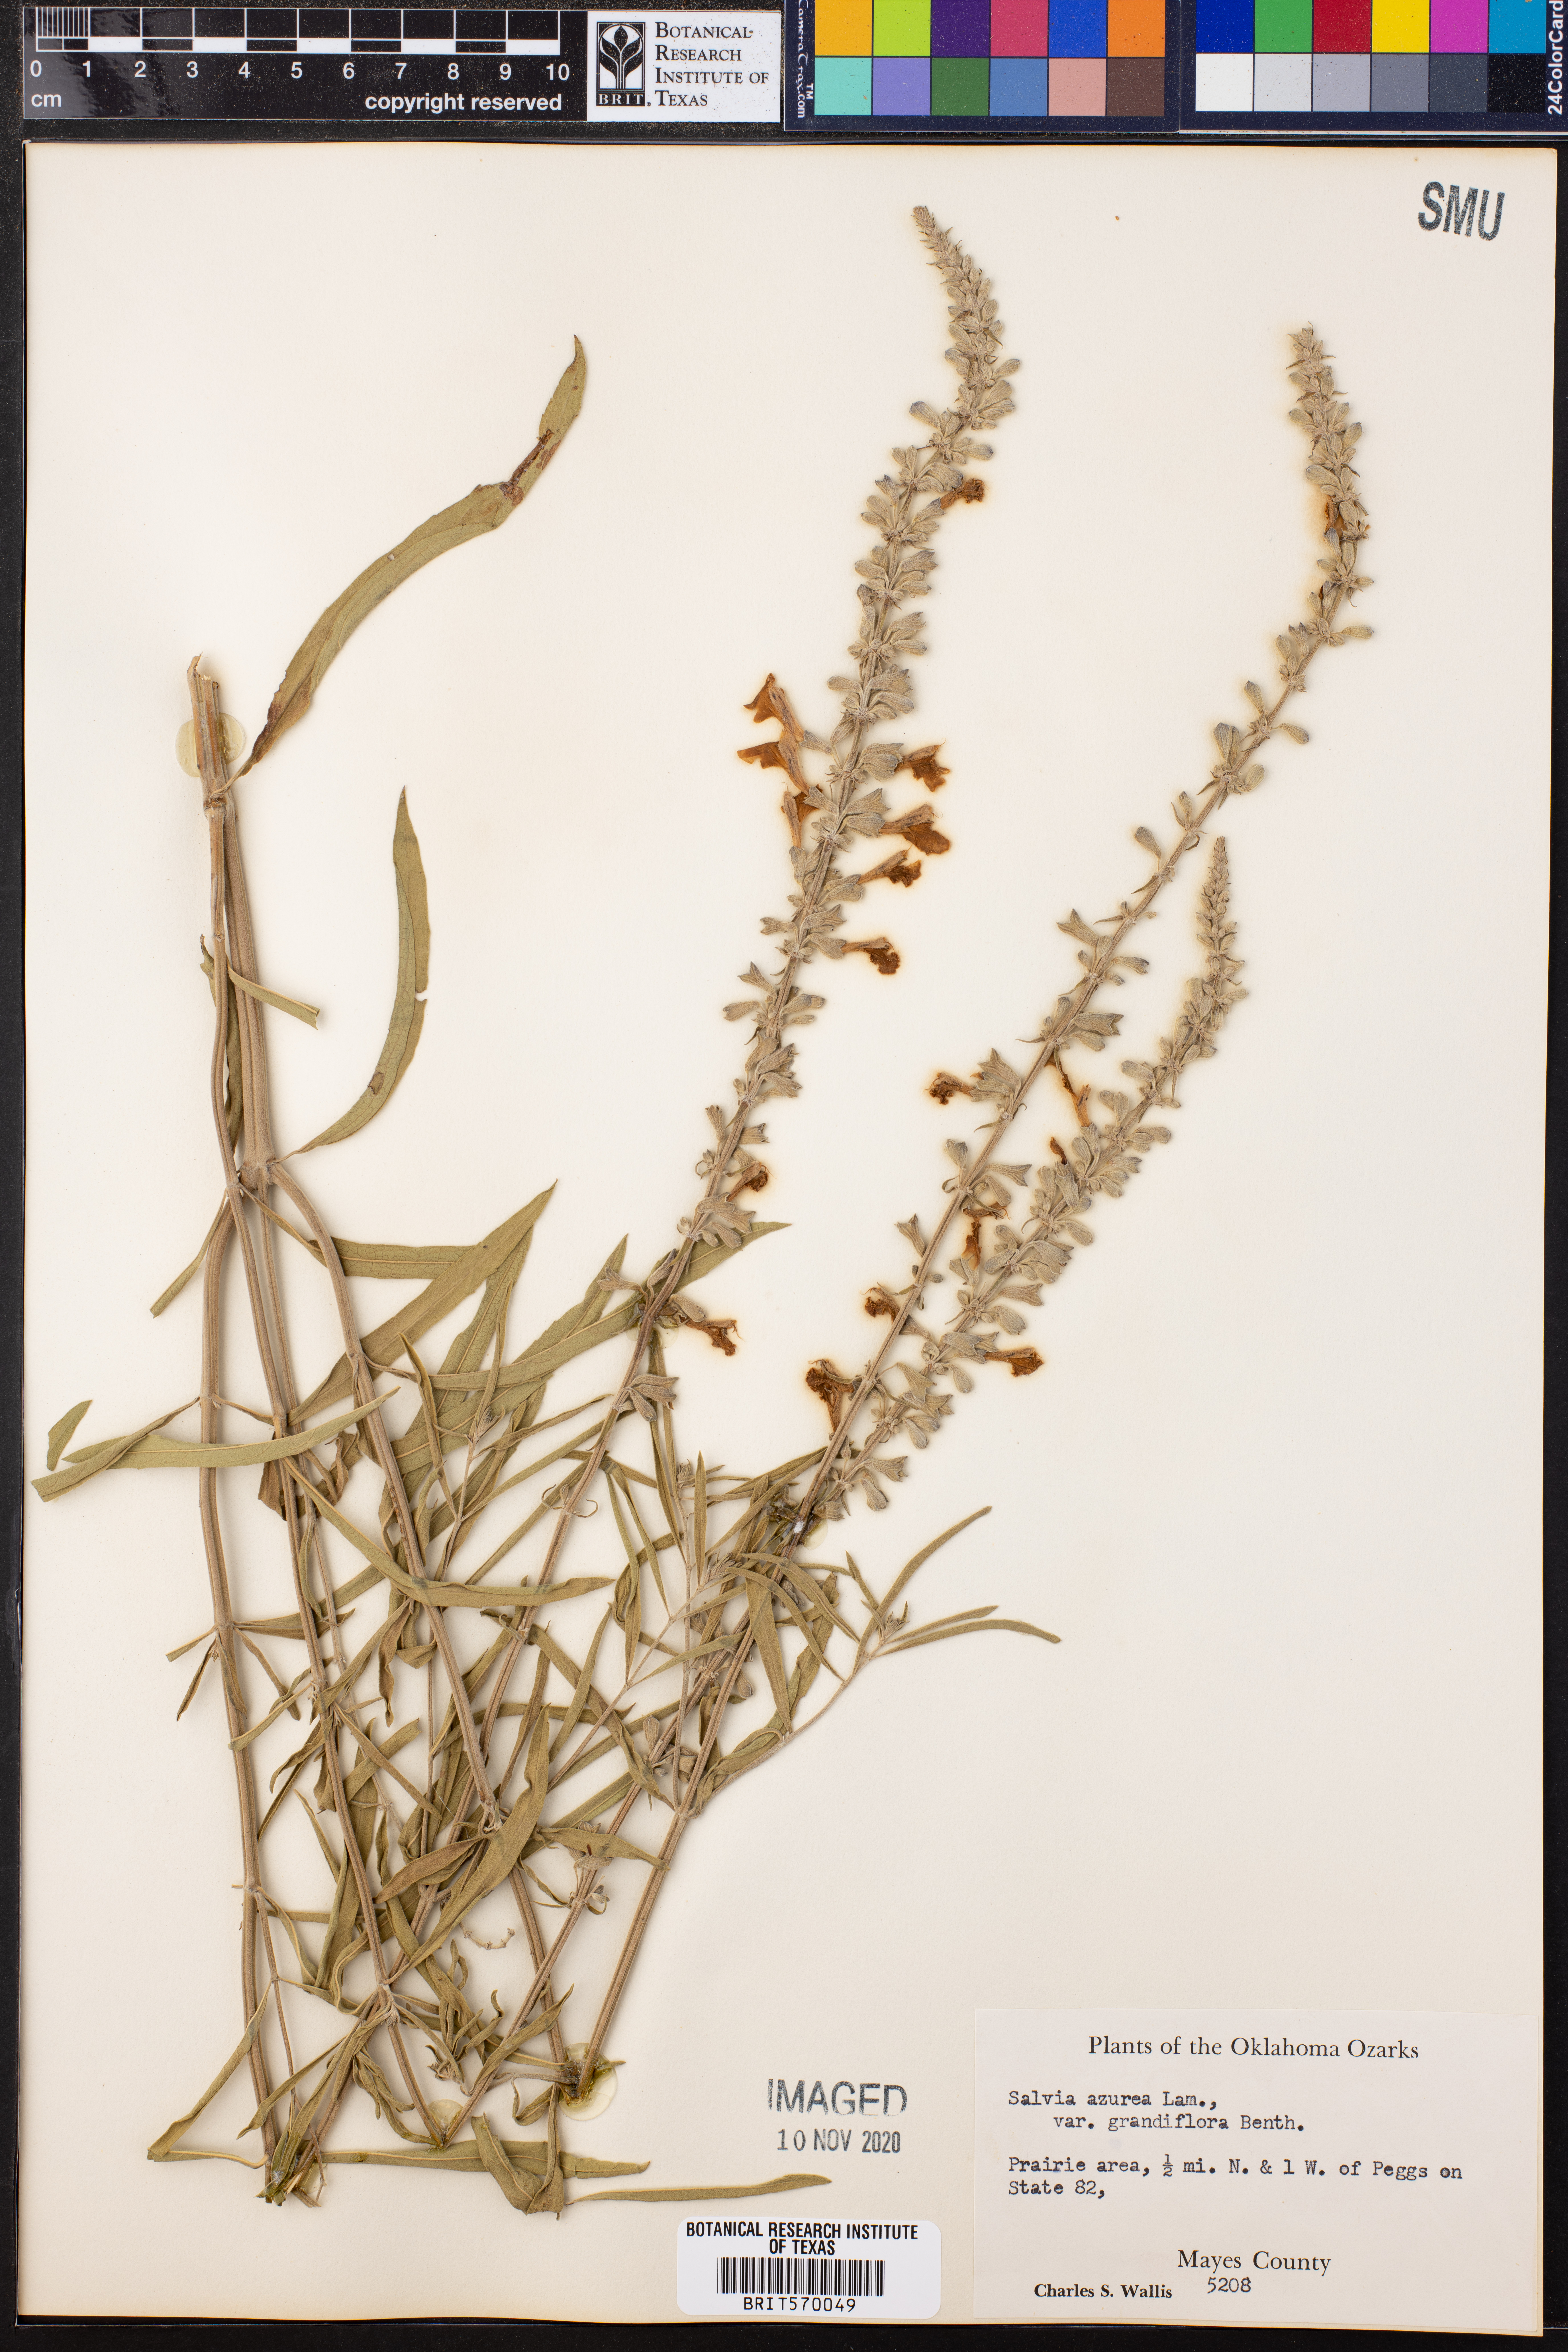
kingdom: Plantae
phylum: Tracheophyta
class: Magnoliopsida
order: Lamiales
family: Lamiaceae
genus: Salvia
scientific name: Salvia azurea
